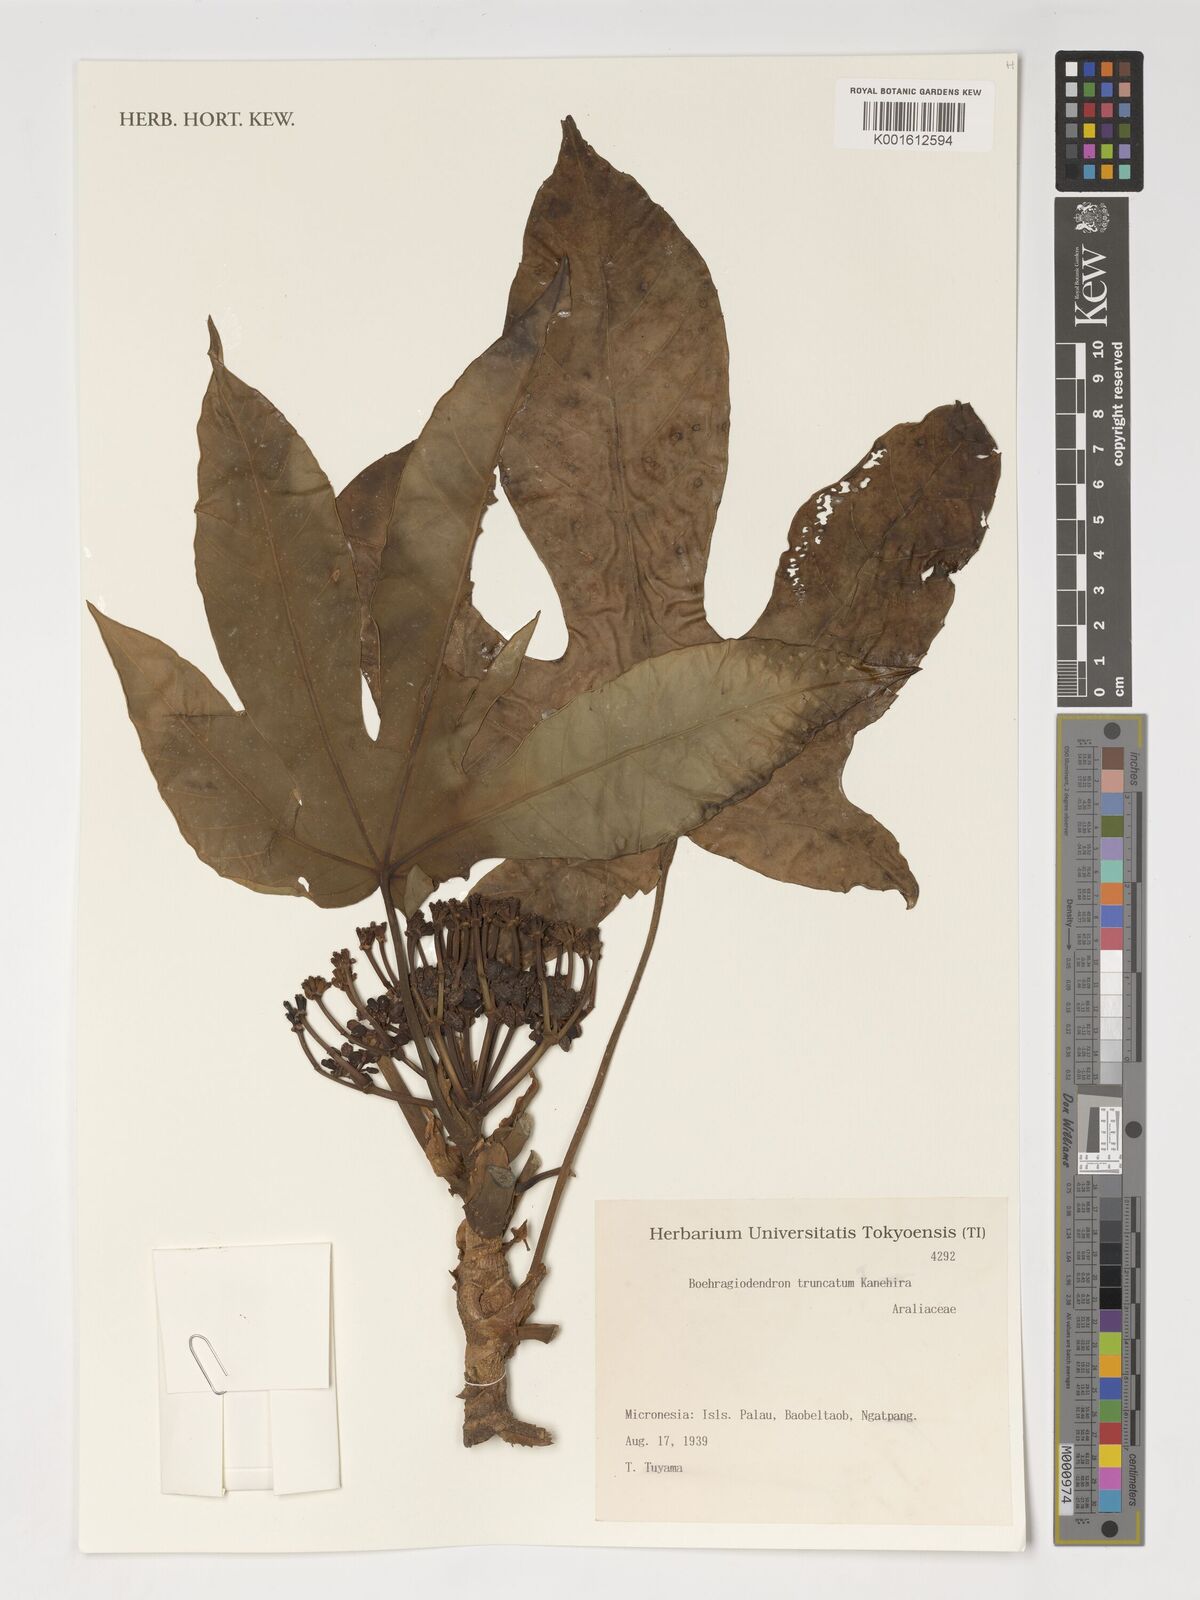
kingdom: Plantae
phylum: Tracheophyta
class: Magnoliopsida
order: Apiales
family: Araliaceae
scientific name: Araliaceae
